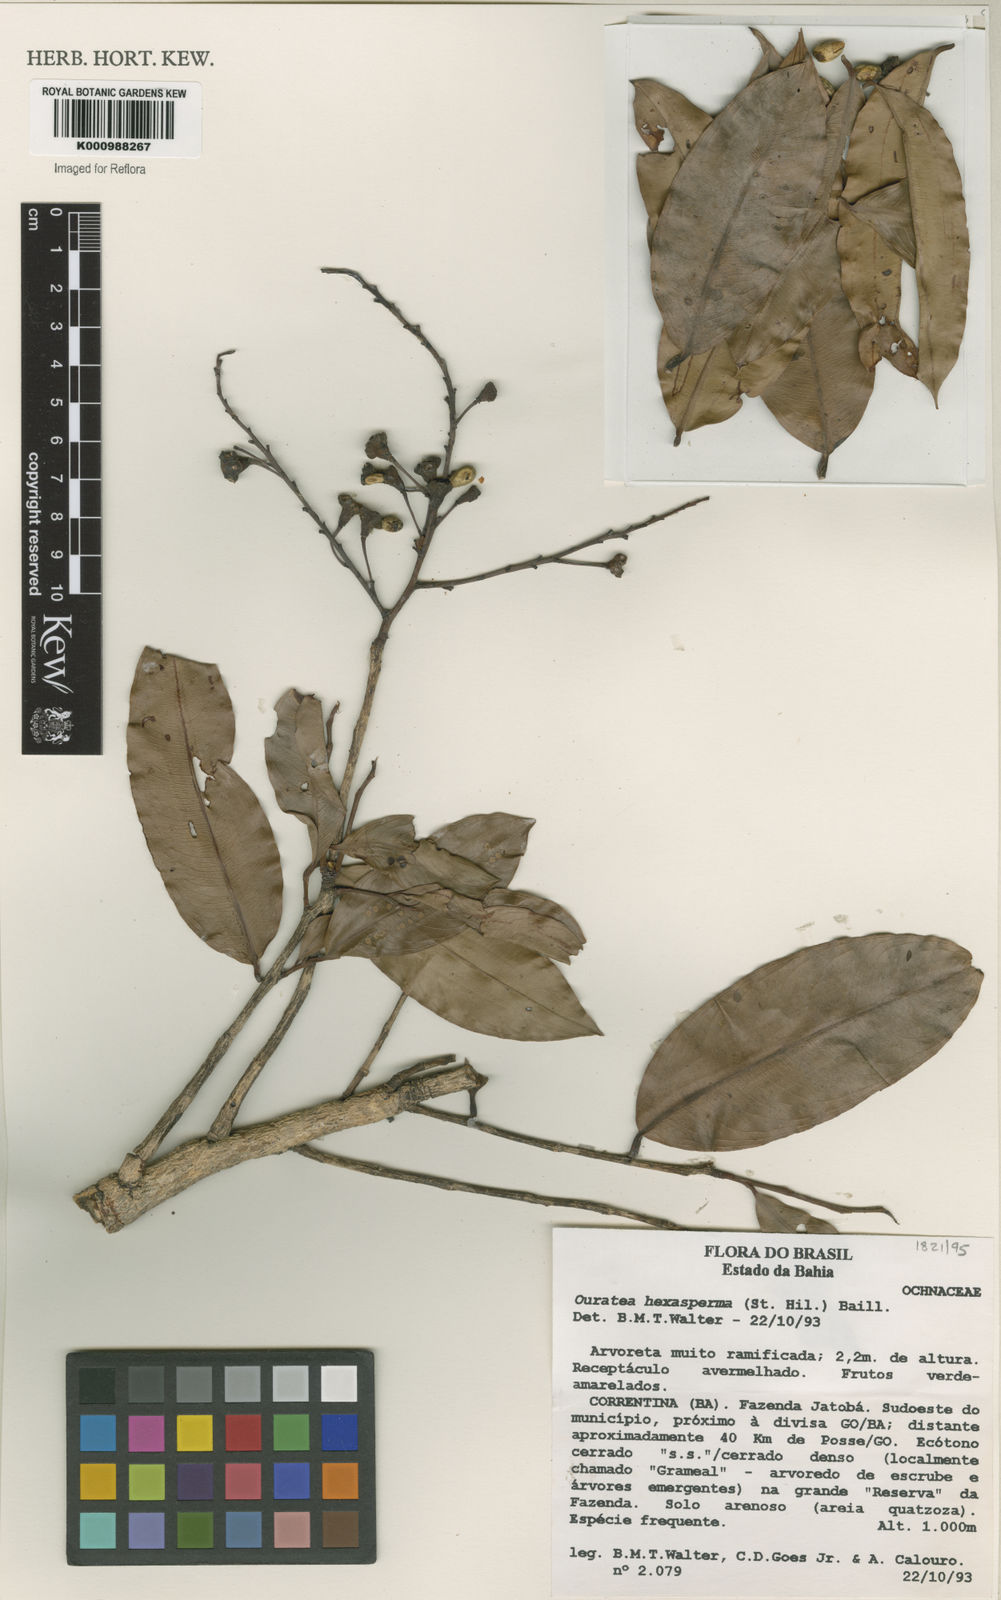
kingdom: Plantae
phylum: Tracheophyta
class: Magnoliopsida
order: Malpighiales
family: Ochnaceae
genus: Ouratea
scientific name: Ouratea hexasperma
